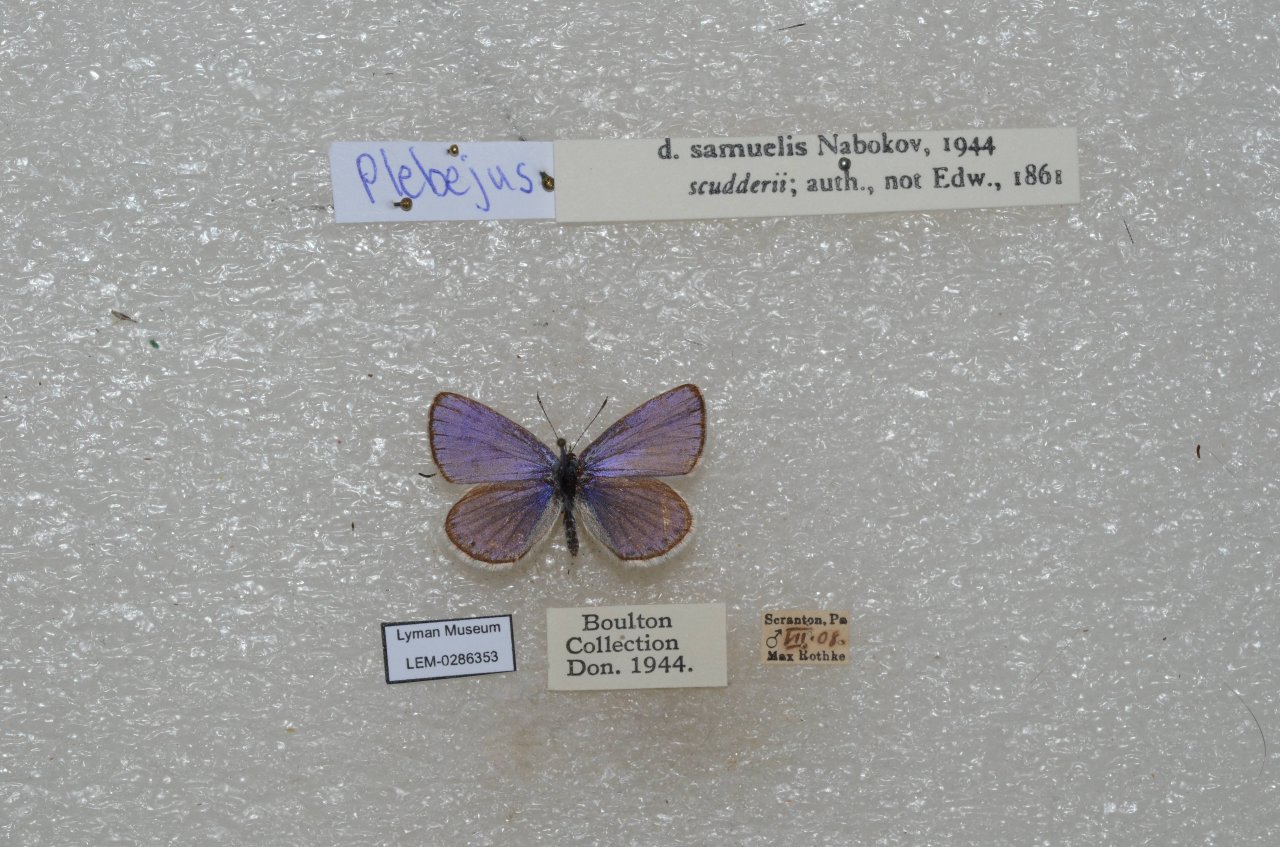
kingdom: Animalia
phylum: Arthropoda
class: Insecta
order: Lepidoptera
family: Lycaenidae
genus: Plebejus
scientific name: Plebejus samuelis
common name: Karner Blue
